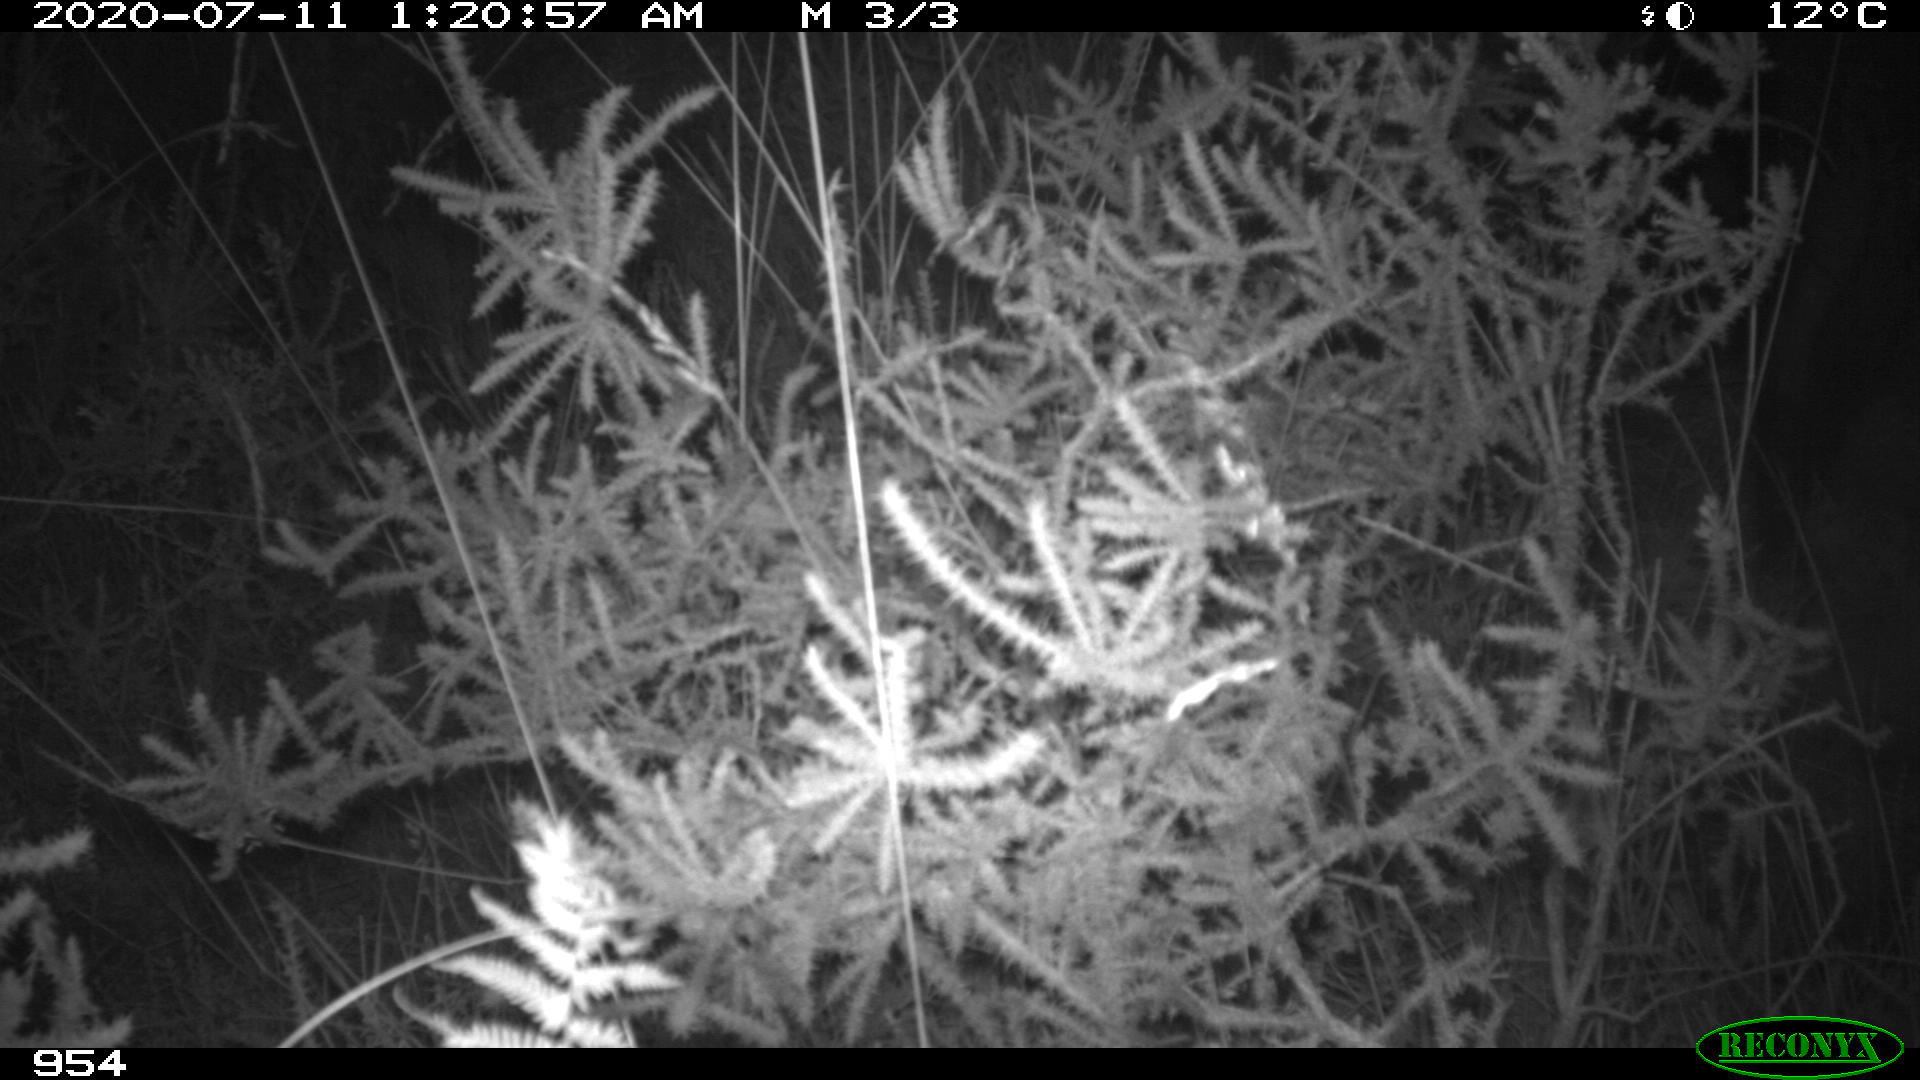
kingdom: Animalia
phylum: Chordata
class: Mammalia
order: Artiodactyla
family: Suidae
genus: Sus
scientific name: Sus scrofa
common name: Wild boar
